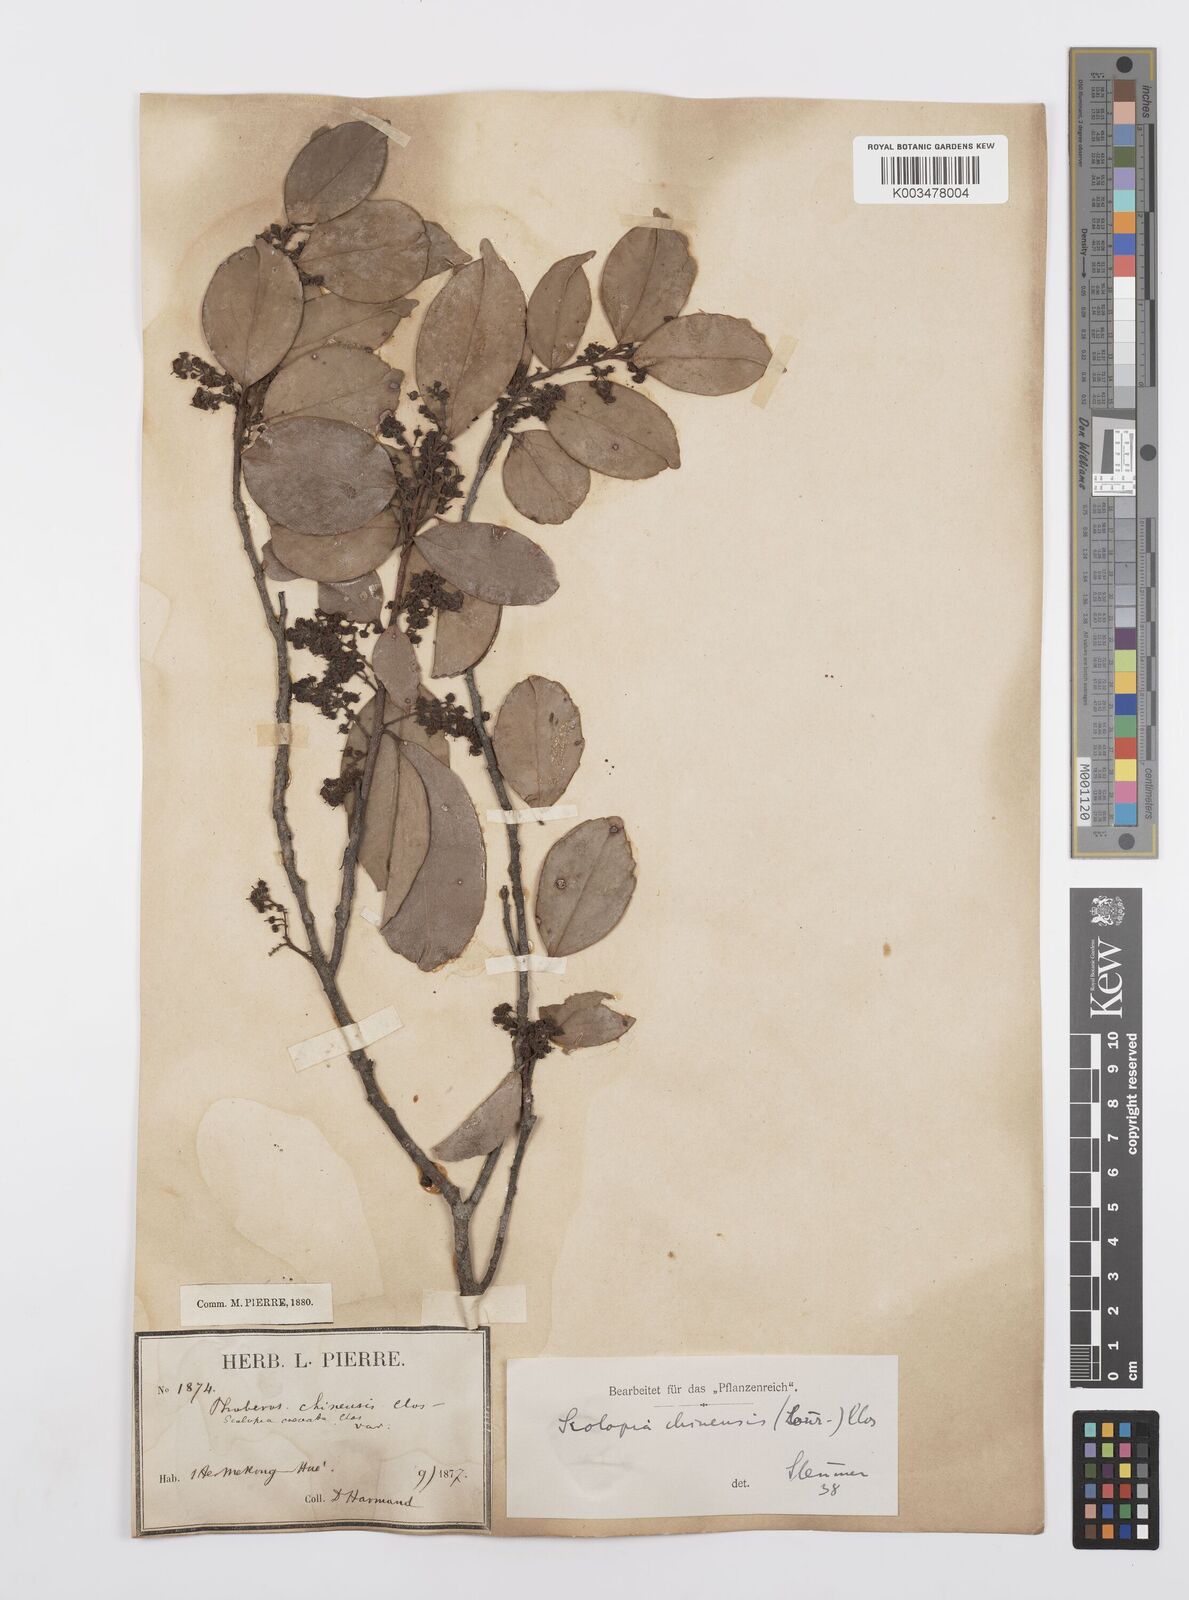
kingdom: Plantae
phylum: Tracheophyta
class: Magnoliopsida
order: Malpighiales
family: Salicaceae
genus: Scolopia
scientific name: Scolopia chinensis
